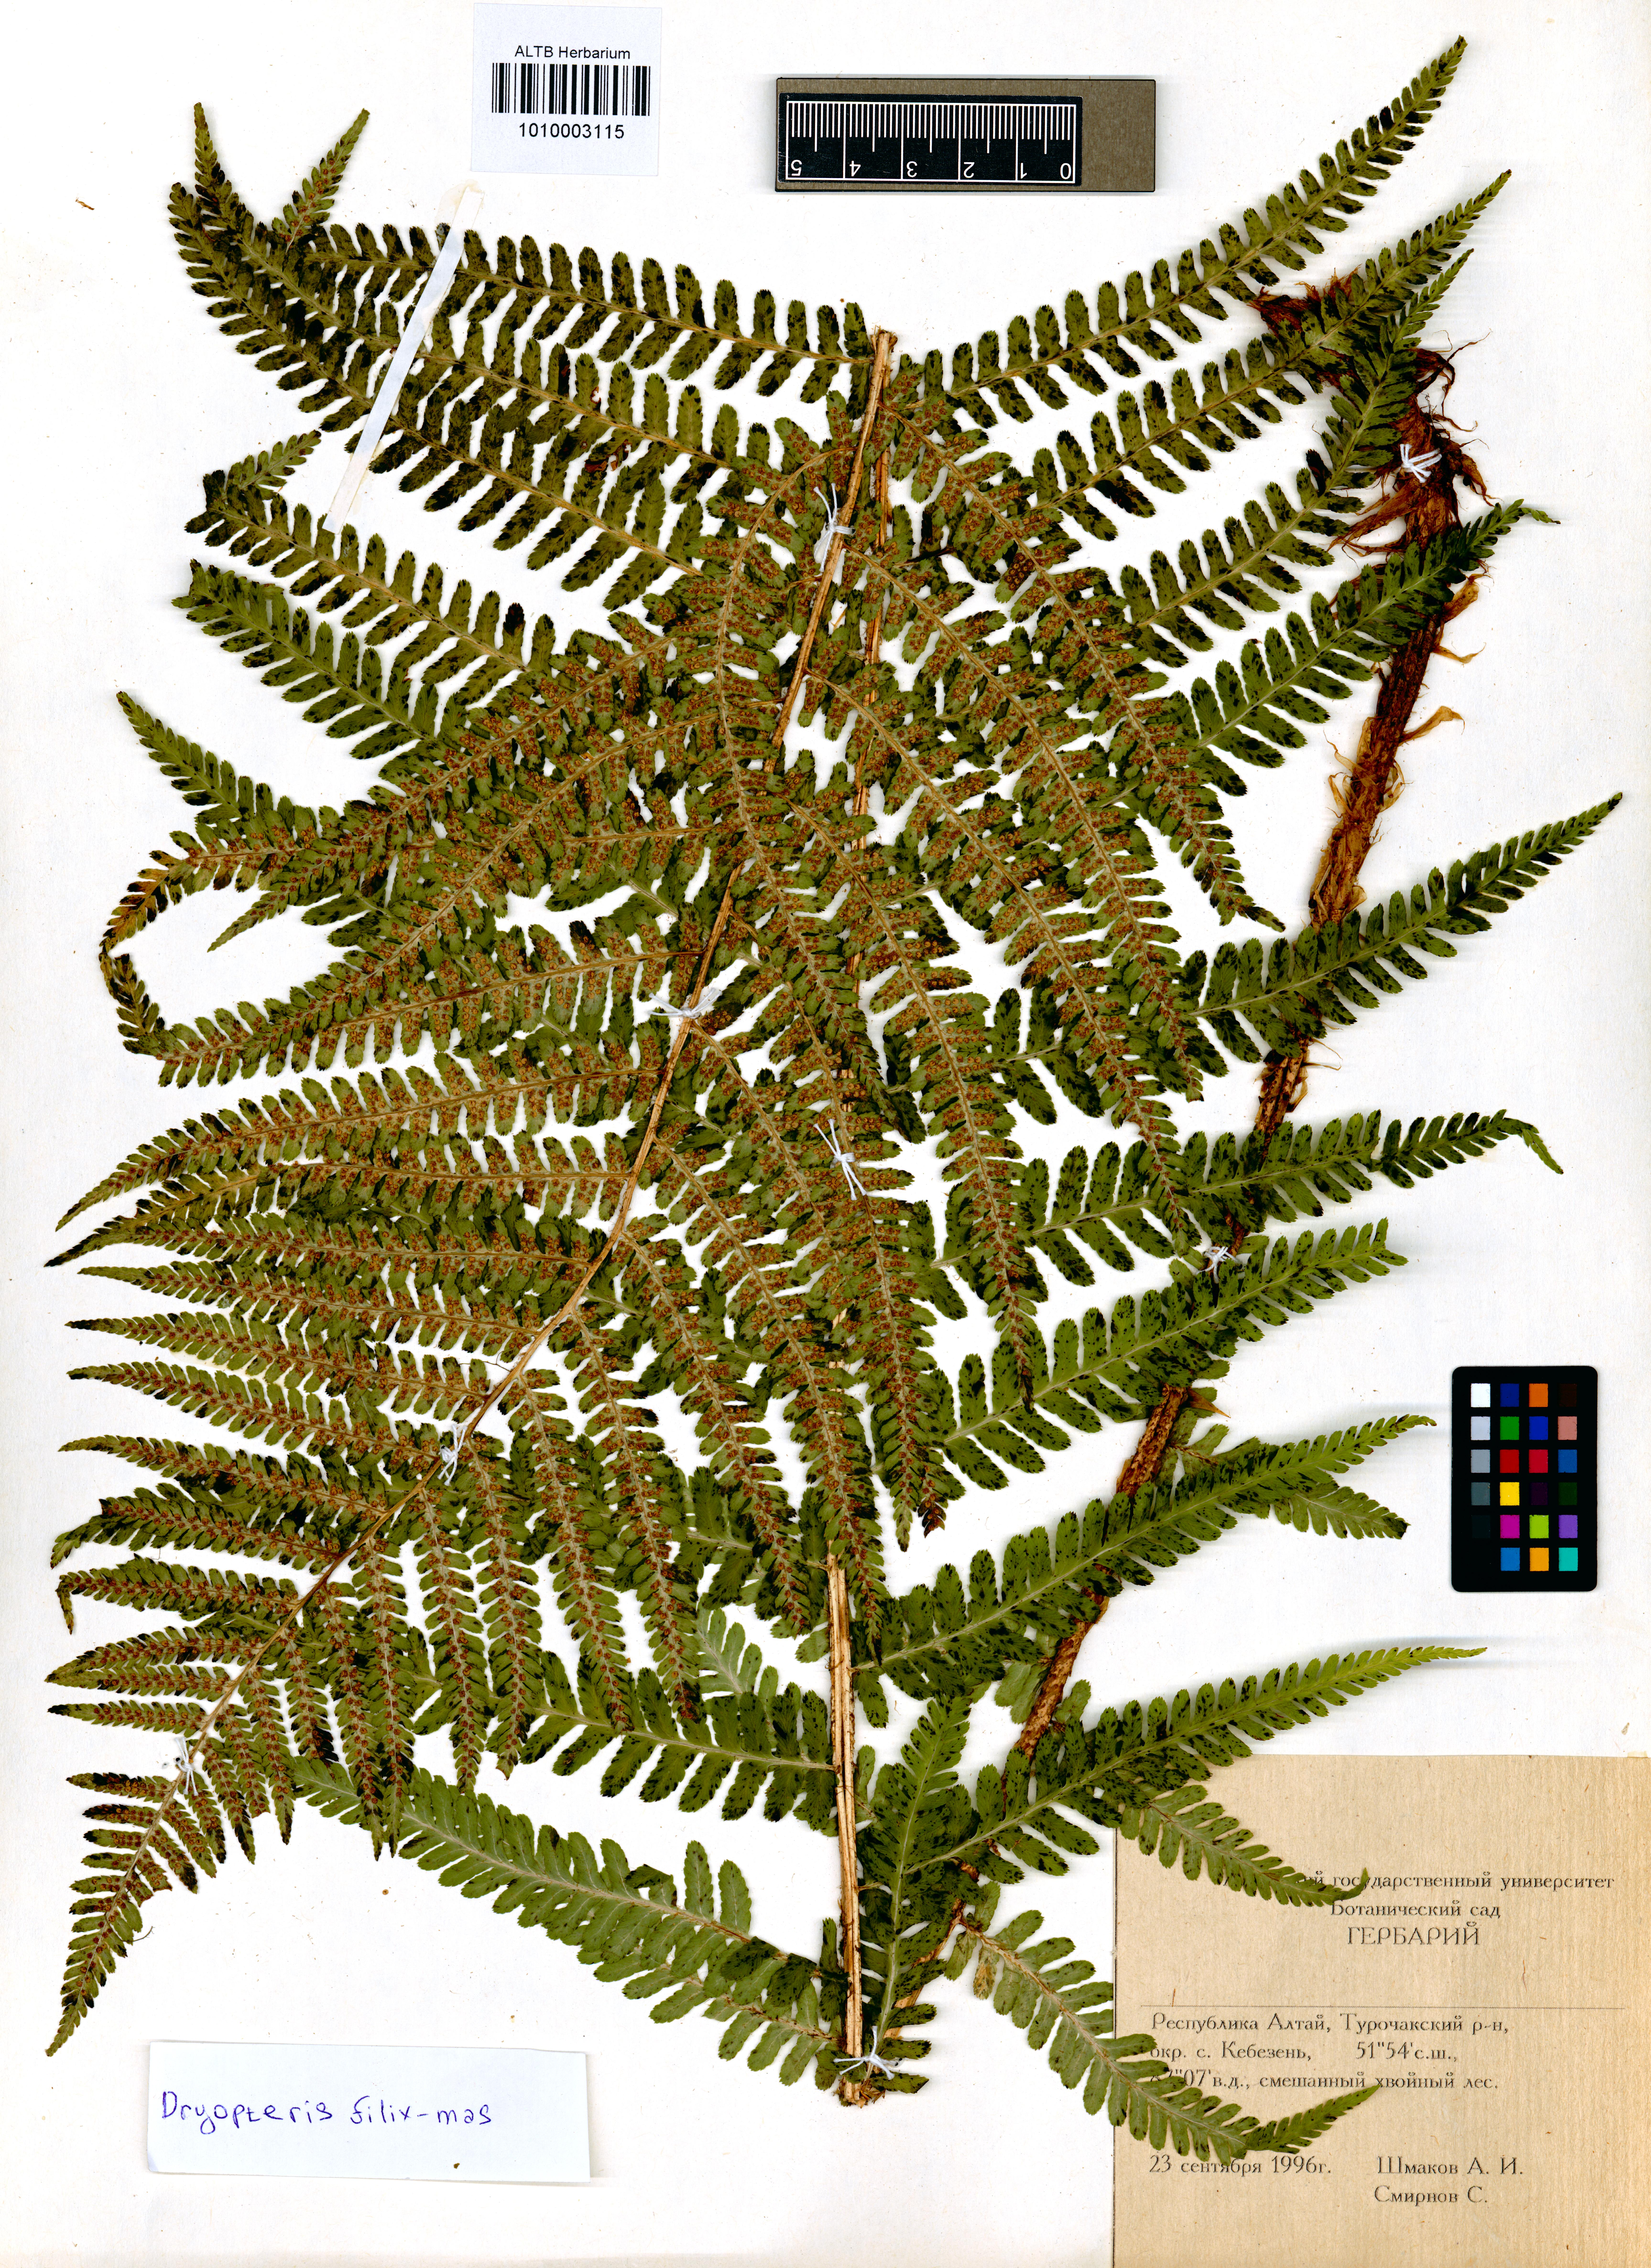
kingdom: Plantae
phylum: Tracheophyta
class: Polypodiopsida
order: Polypodiales
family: Dryopteridaceae
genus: Dryopteris
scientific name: Dryopteris filix-mas
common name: Male fern
